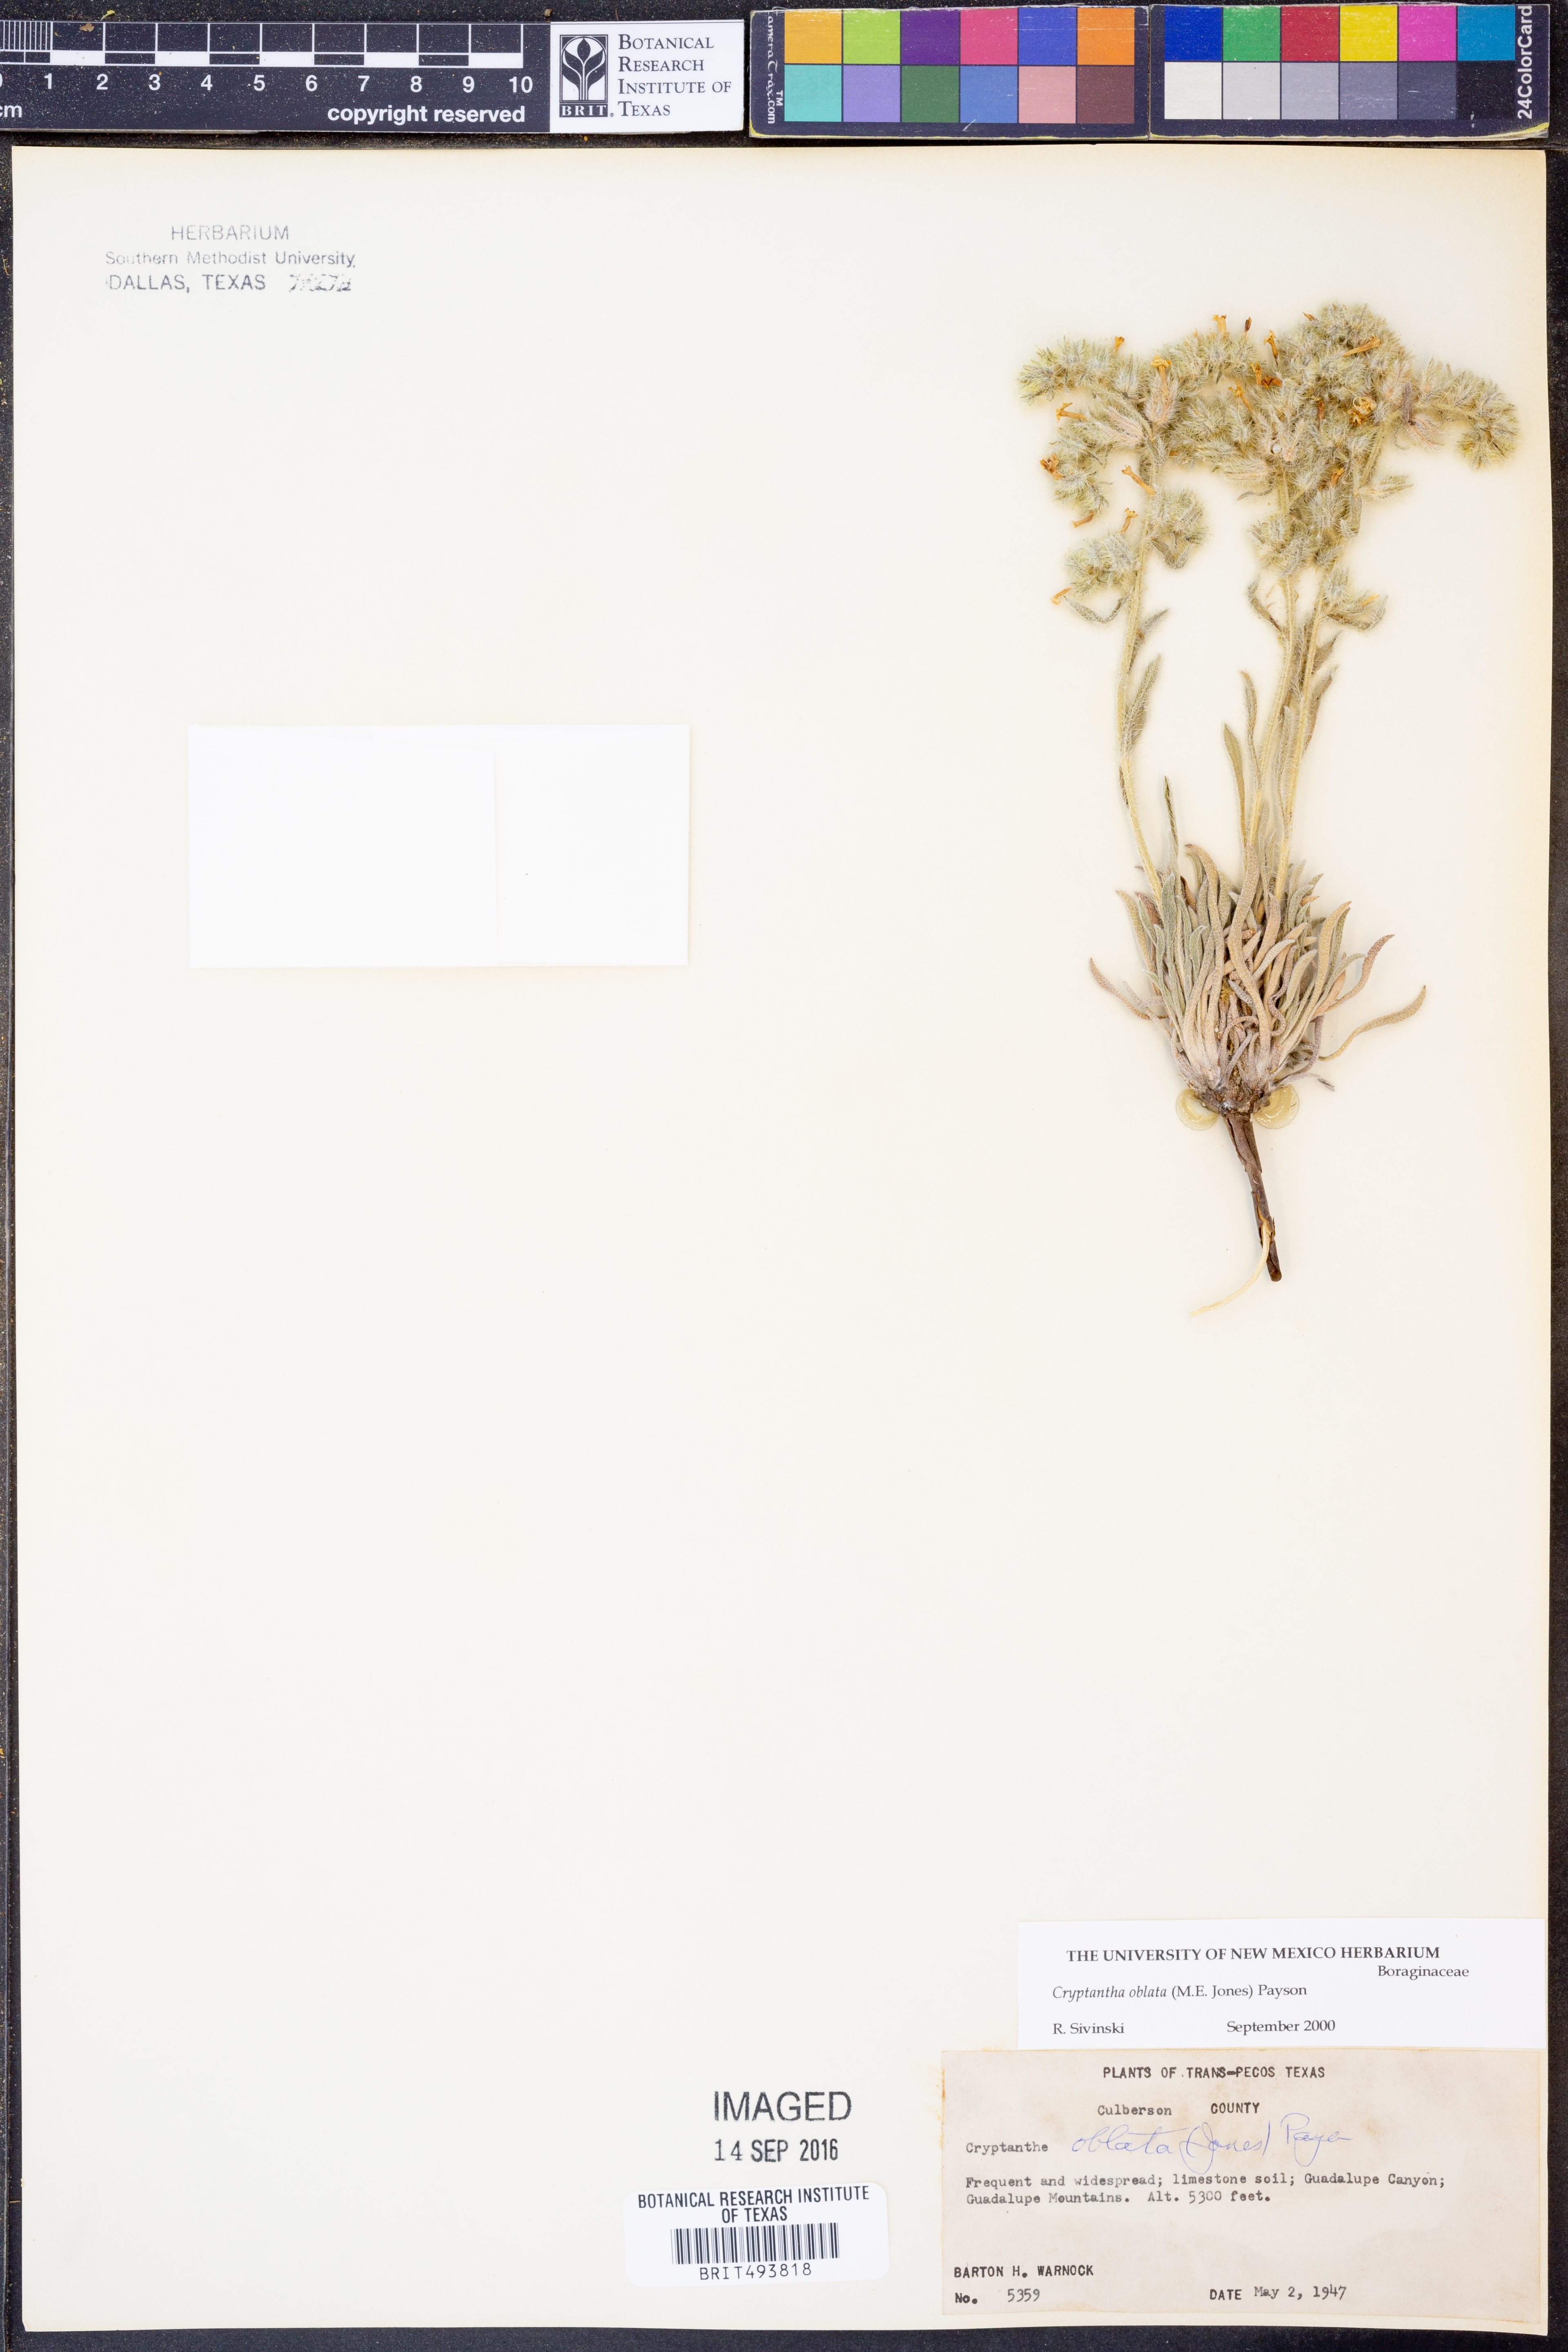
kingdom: Plantae
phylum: Tracheophyta
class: Magnoliopsida
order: Boraginales
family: Boraginaceae
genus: Oreocarya
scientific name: Oreocarya oblata
